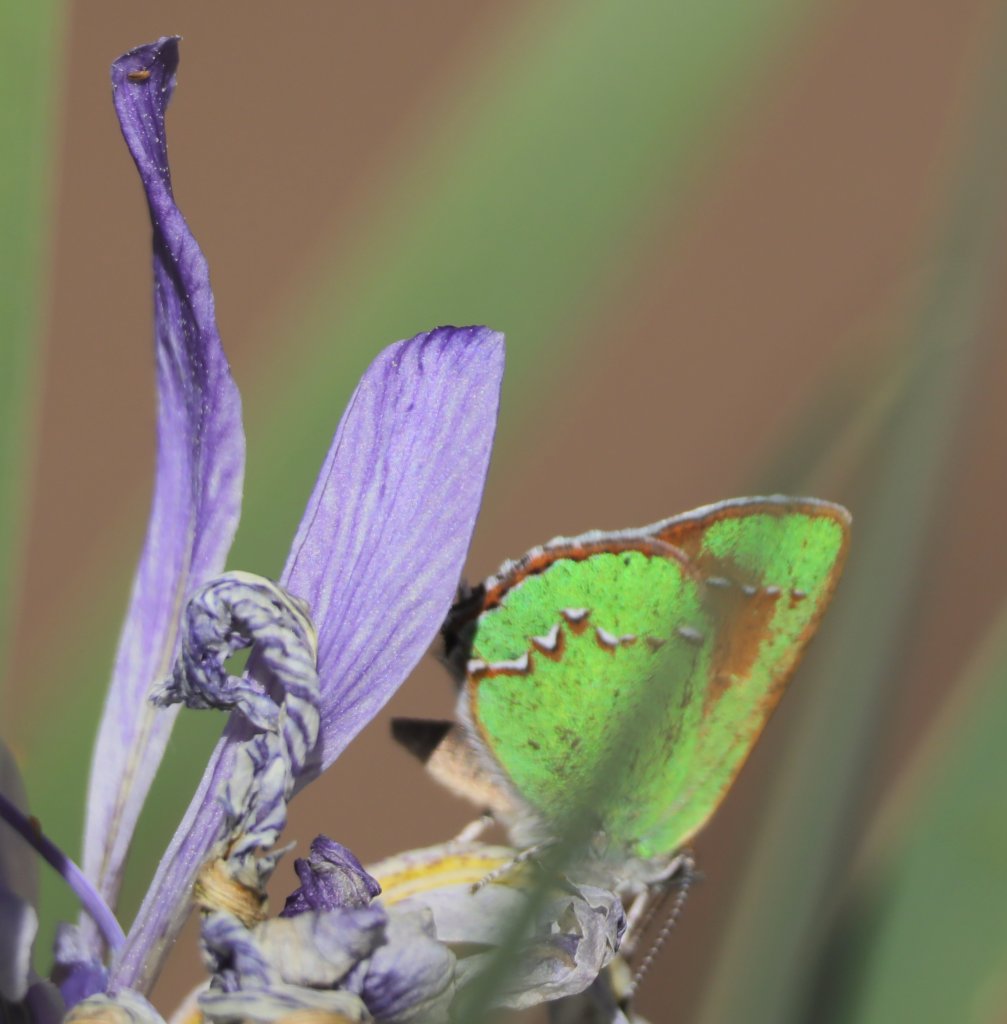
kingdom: Animalia
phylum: Arthropoda
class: Insecta
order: Lepidoptera
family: Lycaenidae
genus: Mitoura
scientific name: Mitoura gryneus
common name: Juniper Hairstreak
